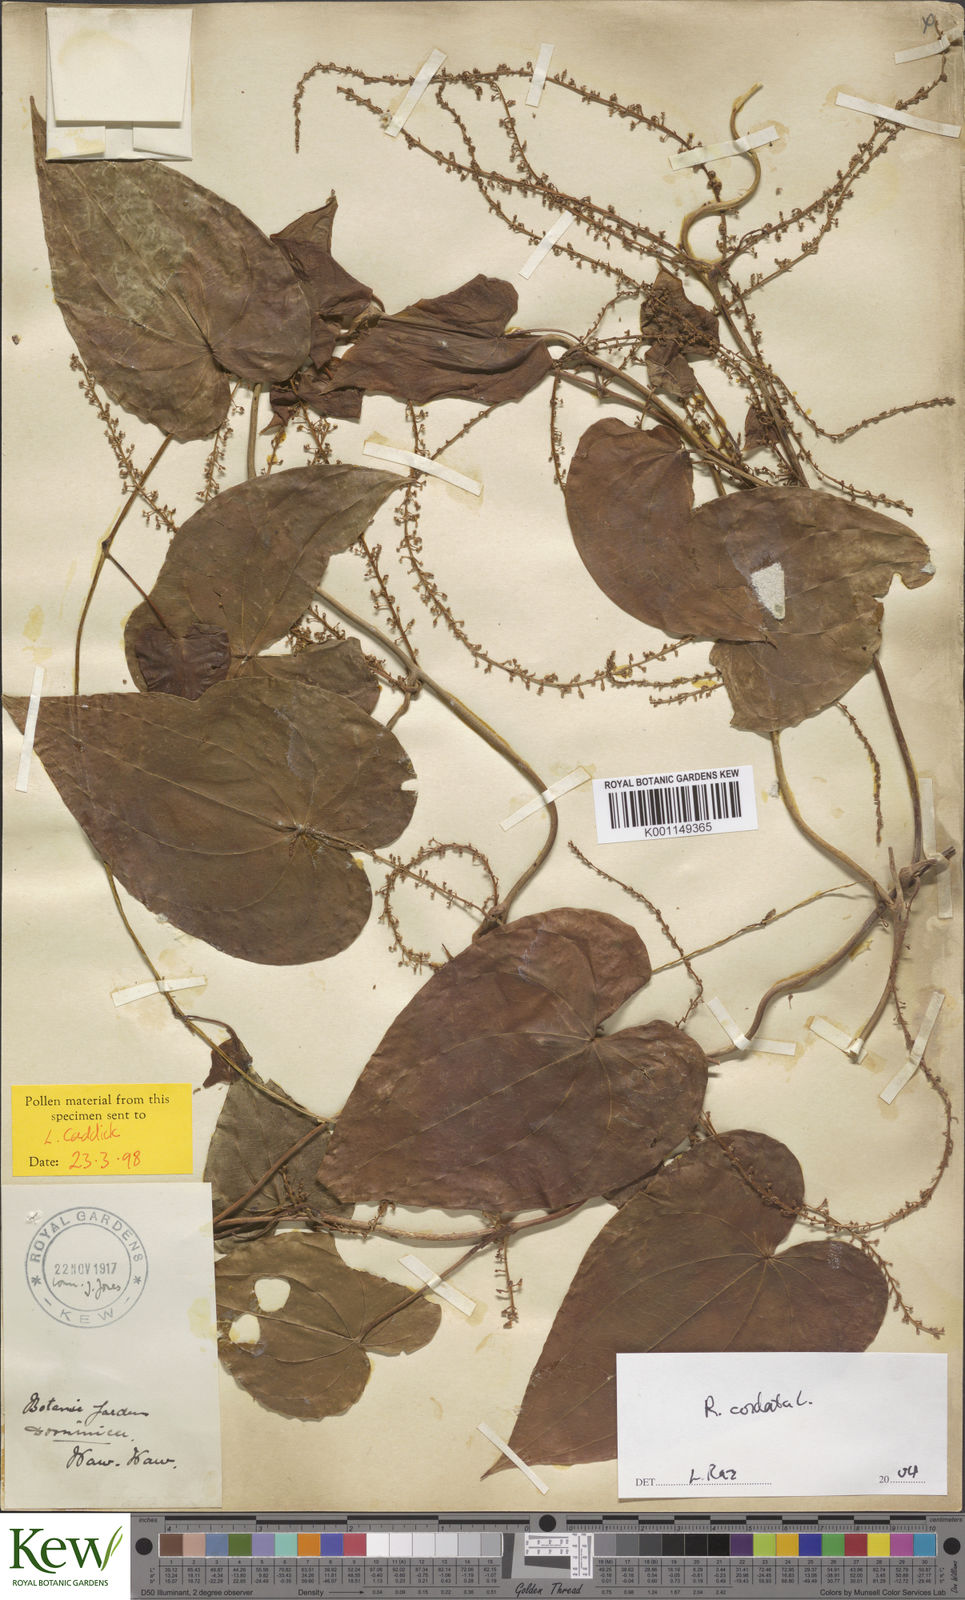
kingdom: Plantae
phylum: Tracheophyta
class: Liliopsida
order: Dioscoreales
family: Dioscoreaceae
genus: Dioscorea
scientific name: Dioscorea
